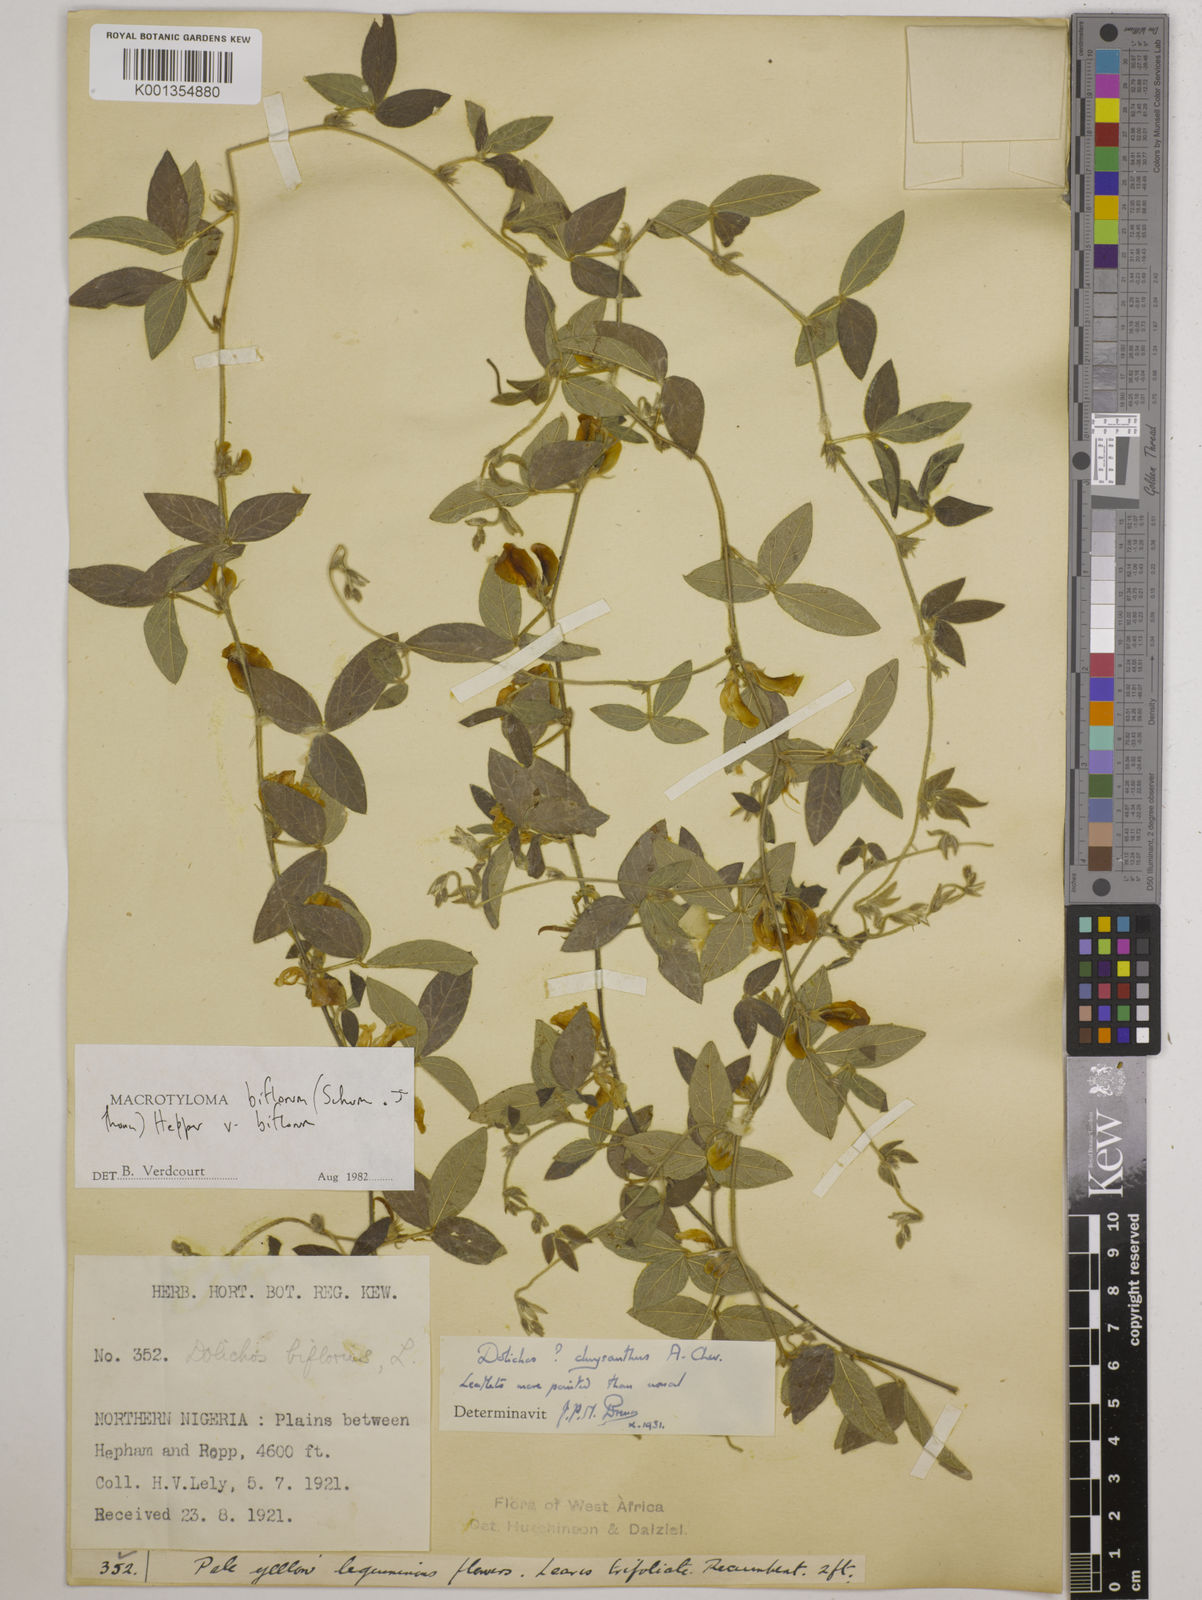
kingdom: Plantae
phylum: Tracheophyta
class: Magnoliopsida
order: Fabales
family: Fabaceae
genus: Macrotyloma
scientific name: Macrotyloma biflorum
